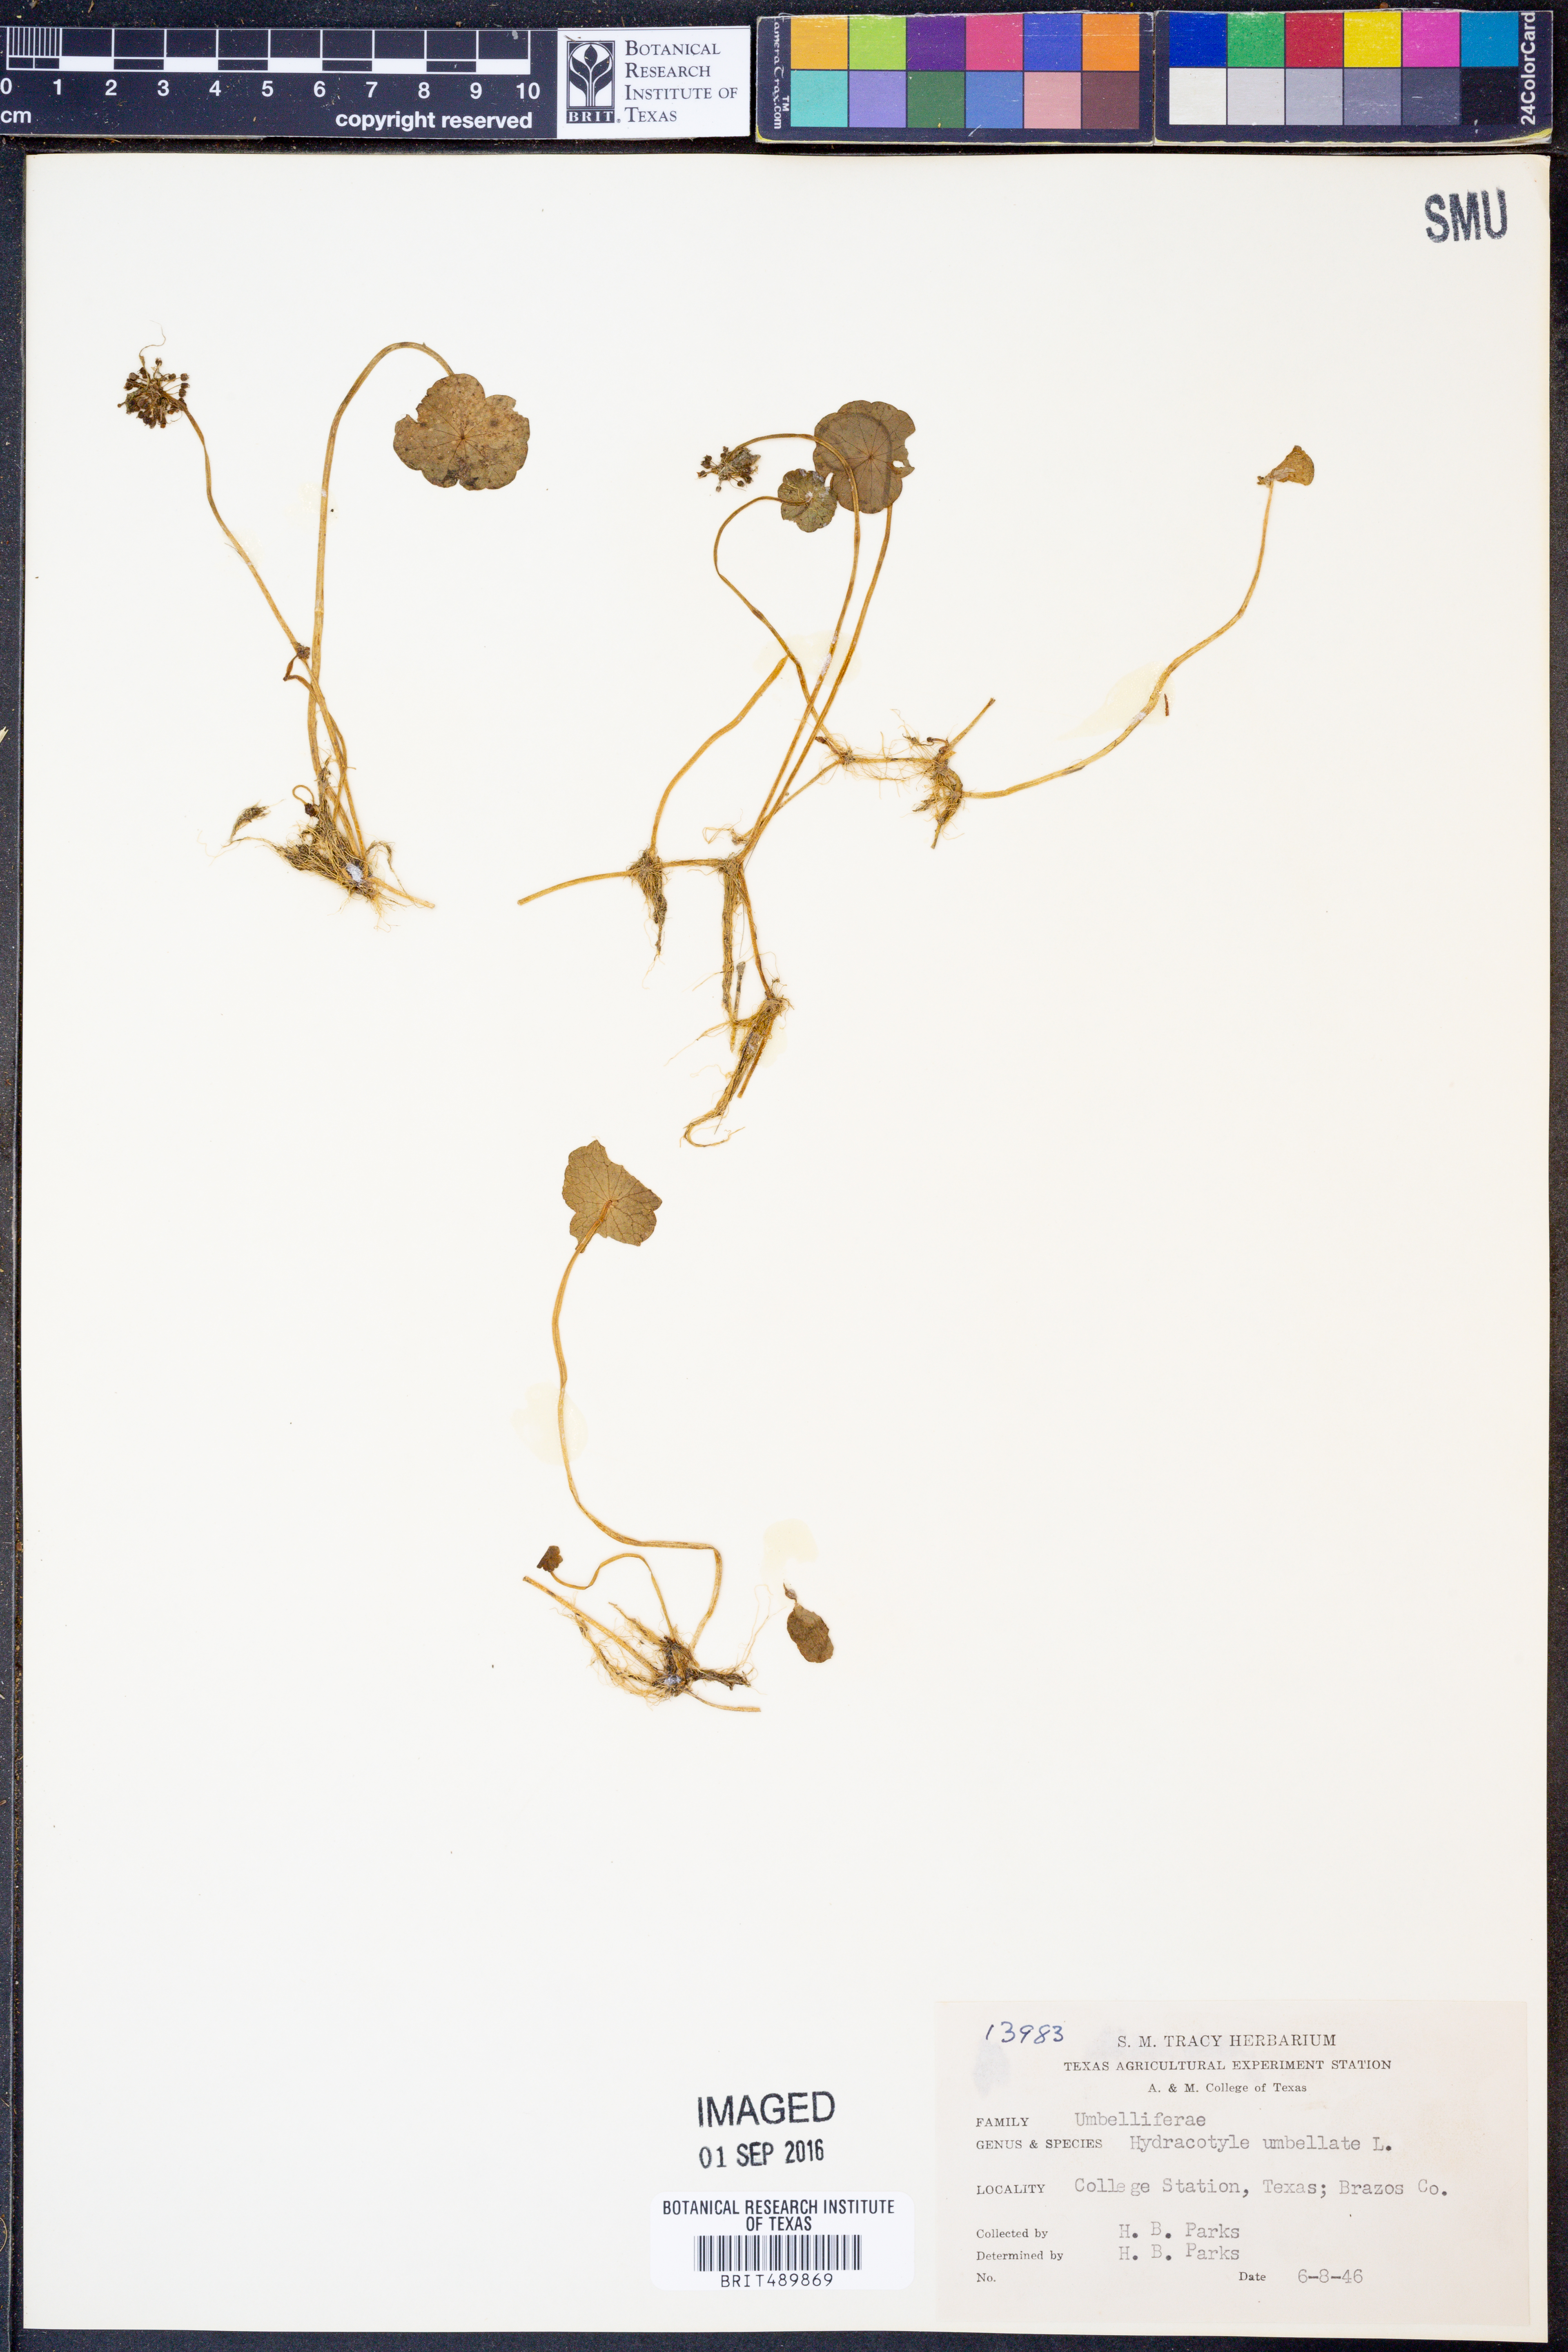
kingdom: Plantae
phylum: Tracheophyta
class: Magnoliopsida
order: Apiales
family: Araliaceae
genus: Hydrocotyle
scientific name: Hydrocotyle umbellata
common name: Water pennywort
